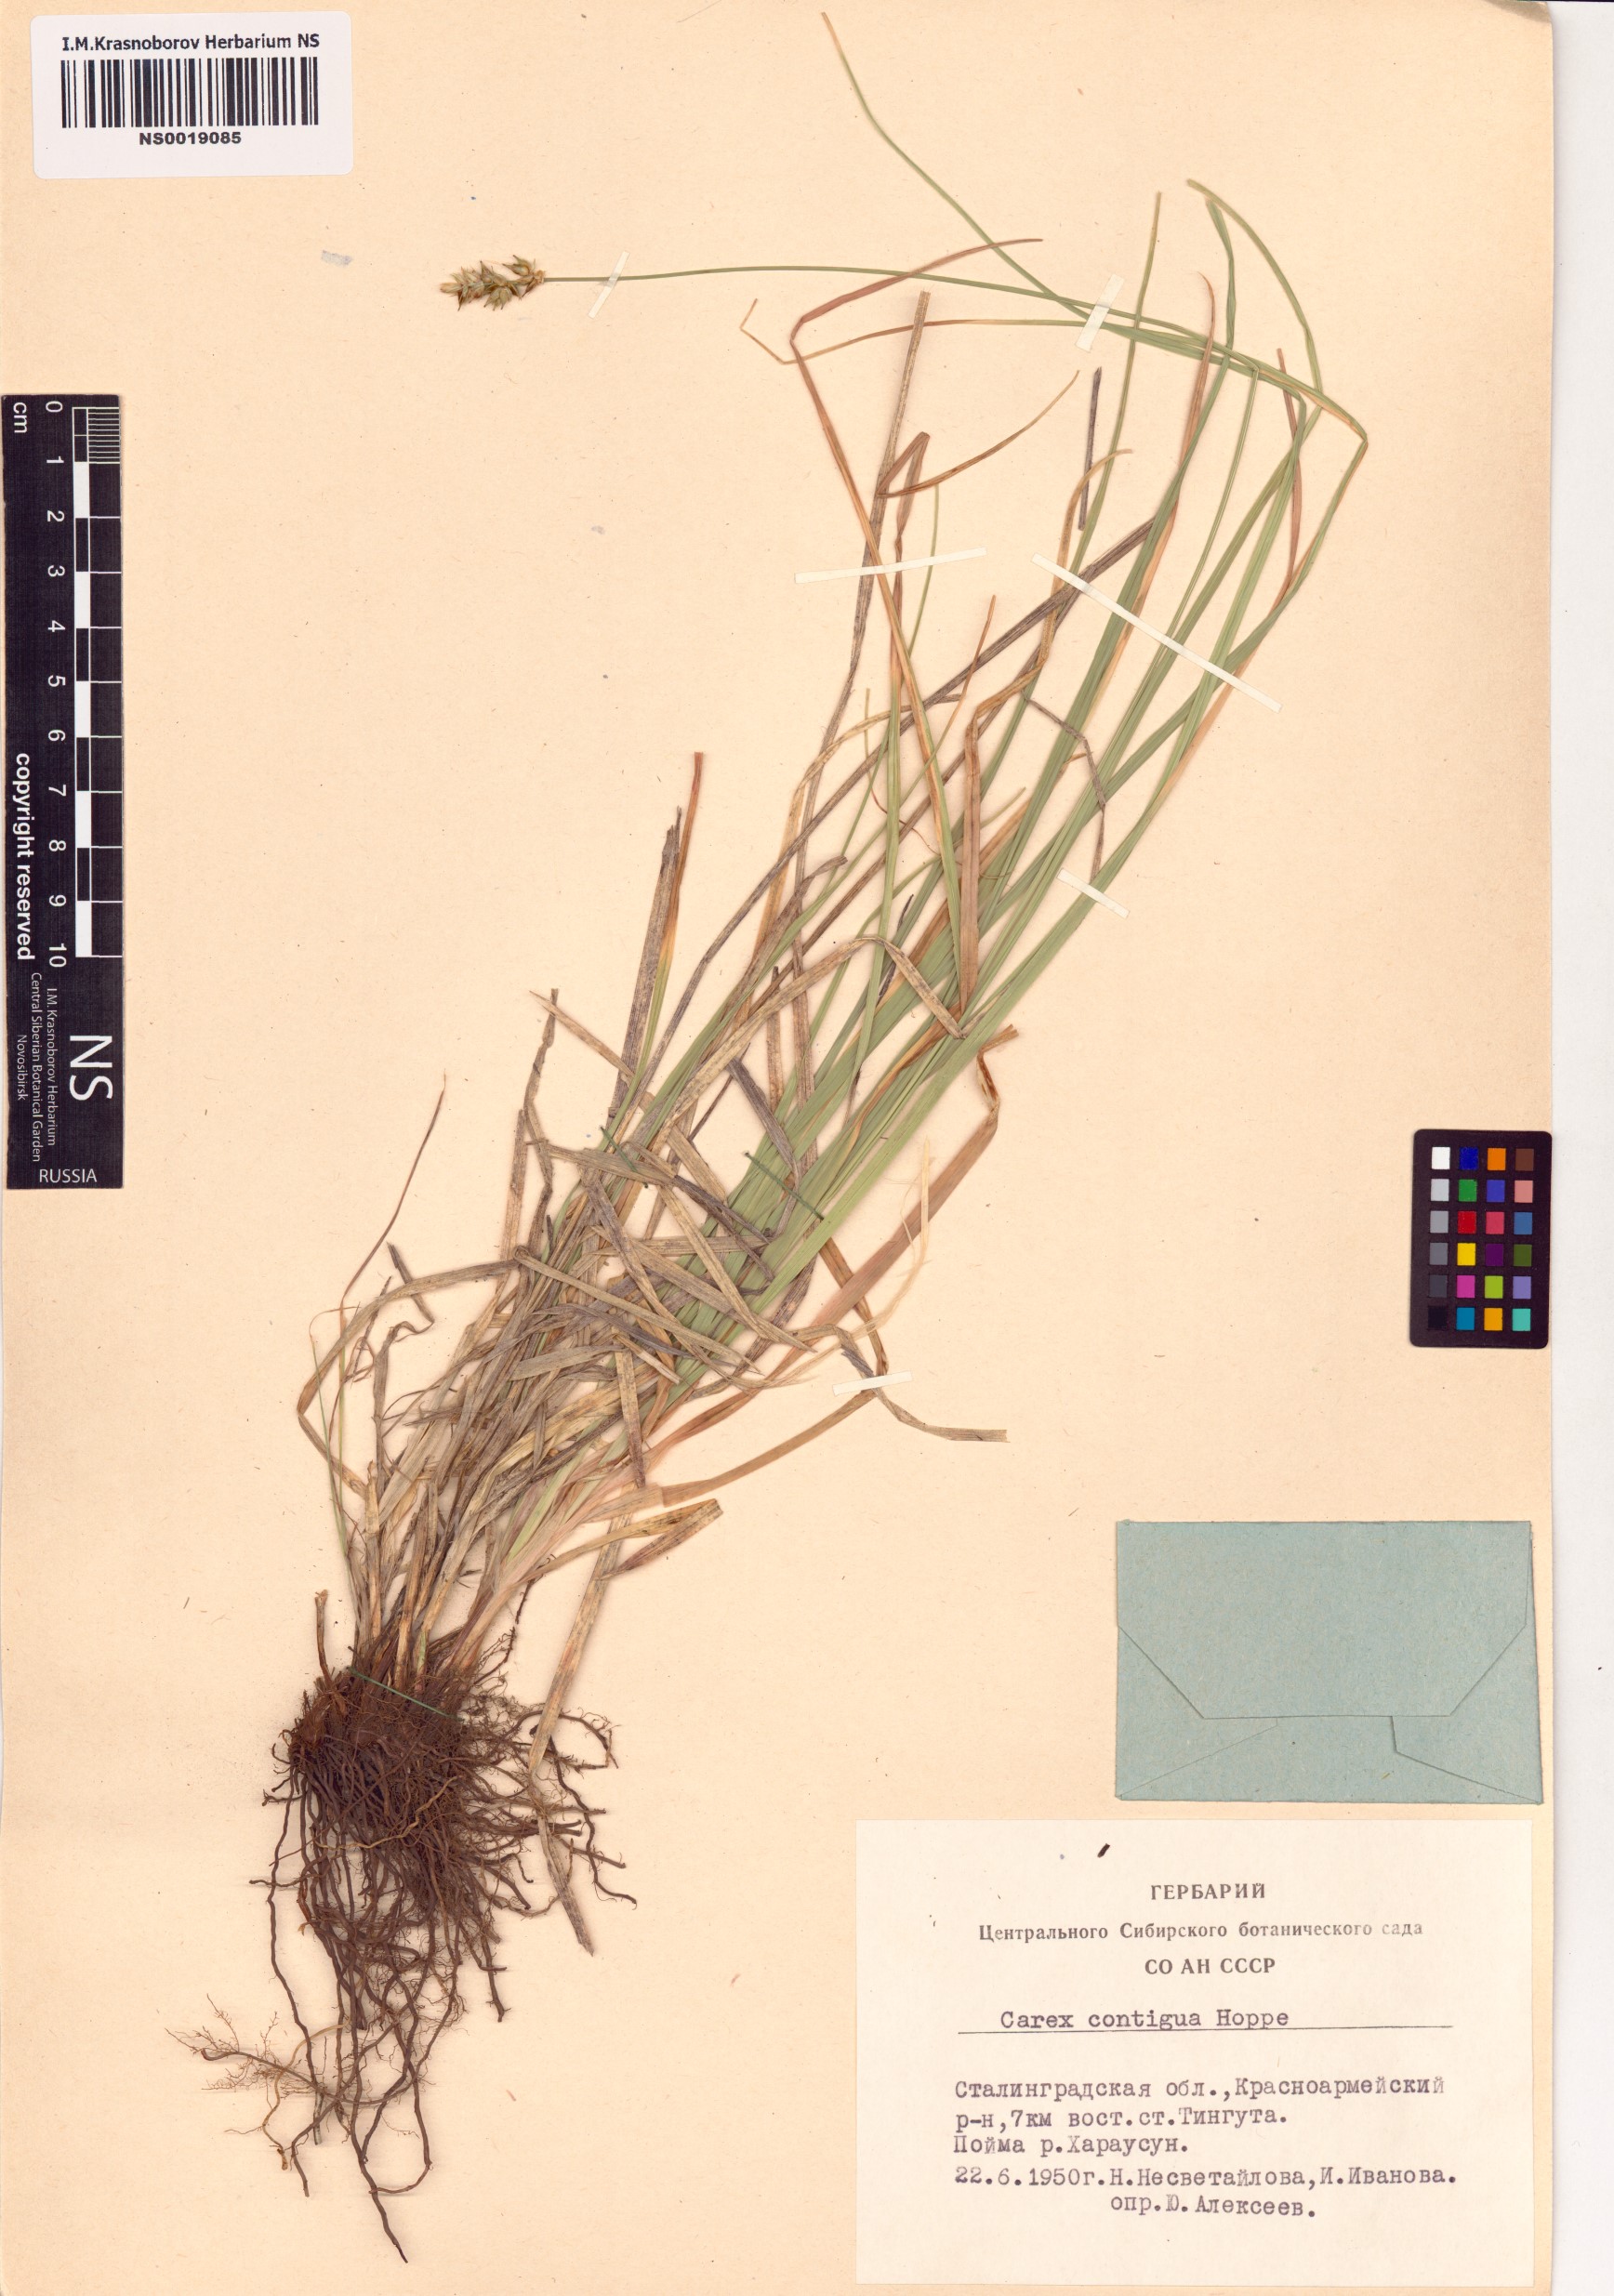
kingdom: Plantae
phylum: Tracheophyta
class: Liliopsida
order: Poales
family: Cyperaceae
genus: Carex
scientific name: Carex spicata
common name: Spiked sedge
